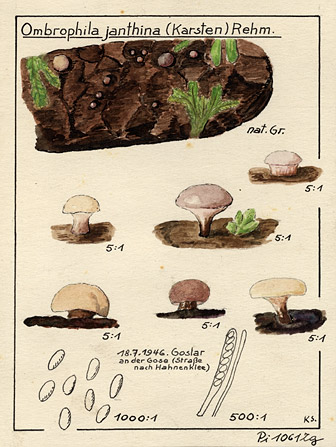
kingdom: Fungi
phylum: Ascomycota
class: Leotiomycetes
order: Helotiales
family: Gelatinodiscaceae
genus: Ombrophila
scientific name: Ombrophila janthina
